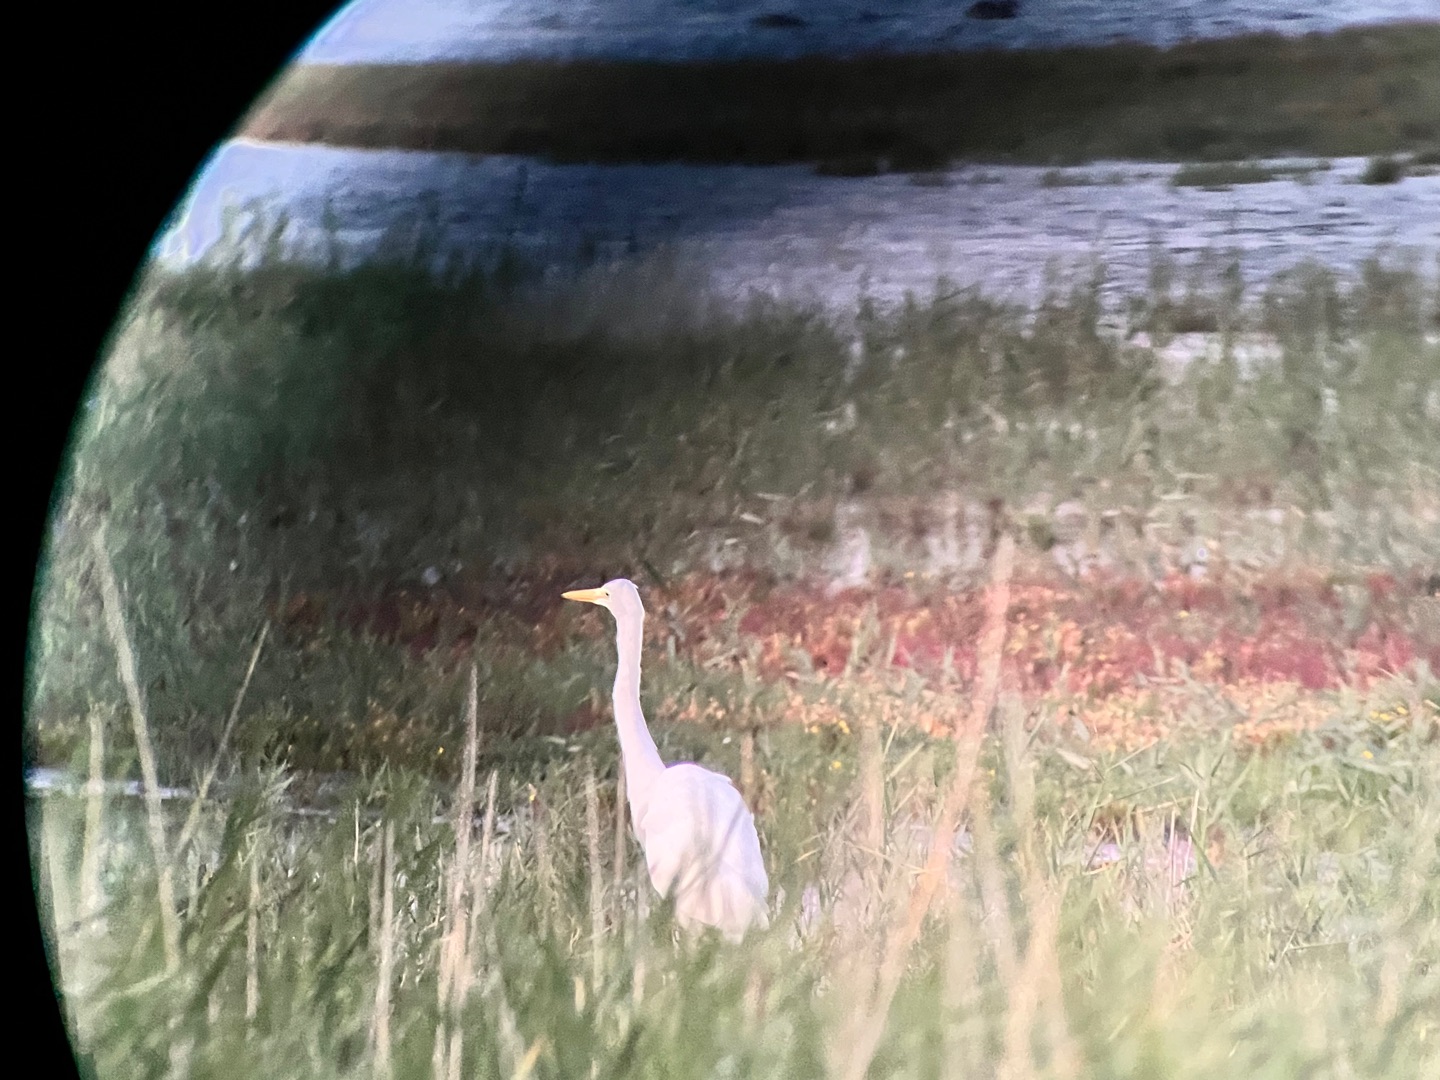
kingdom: Animalia
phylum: Chordata
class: Aves
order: Pelecaniformes
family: Ardeidae
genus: Ardea
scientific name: Ardea alba
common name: Sølvhejre
